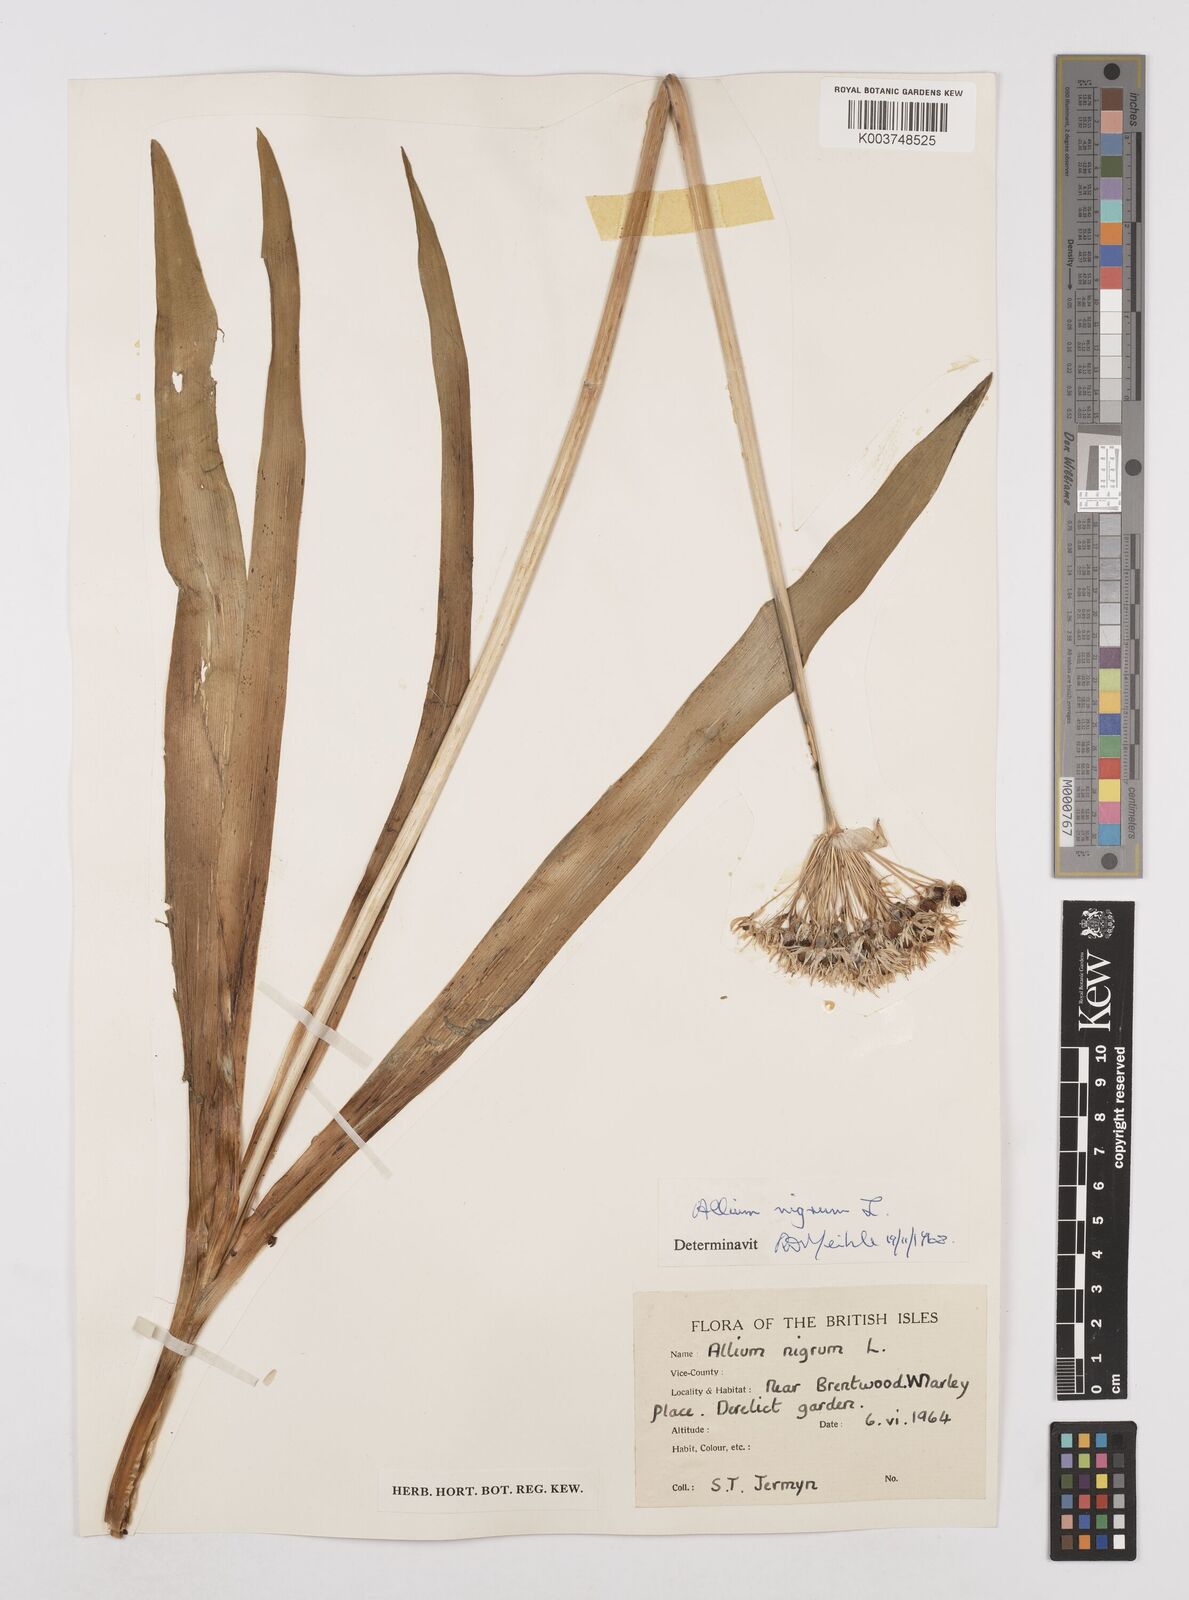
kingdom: Plantae
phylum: Tracheophyta
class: Liliopsida
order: Asparagales
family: Amaryllidaceae
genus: Allium
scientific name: Allium nigrum
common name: Black garlic
